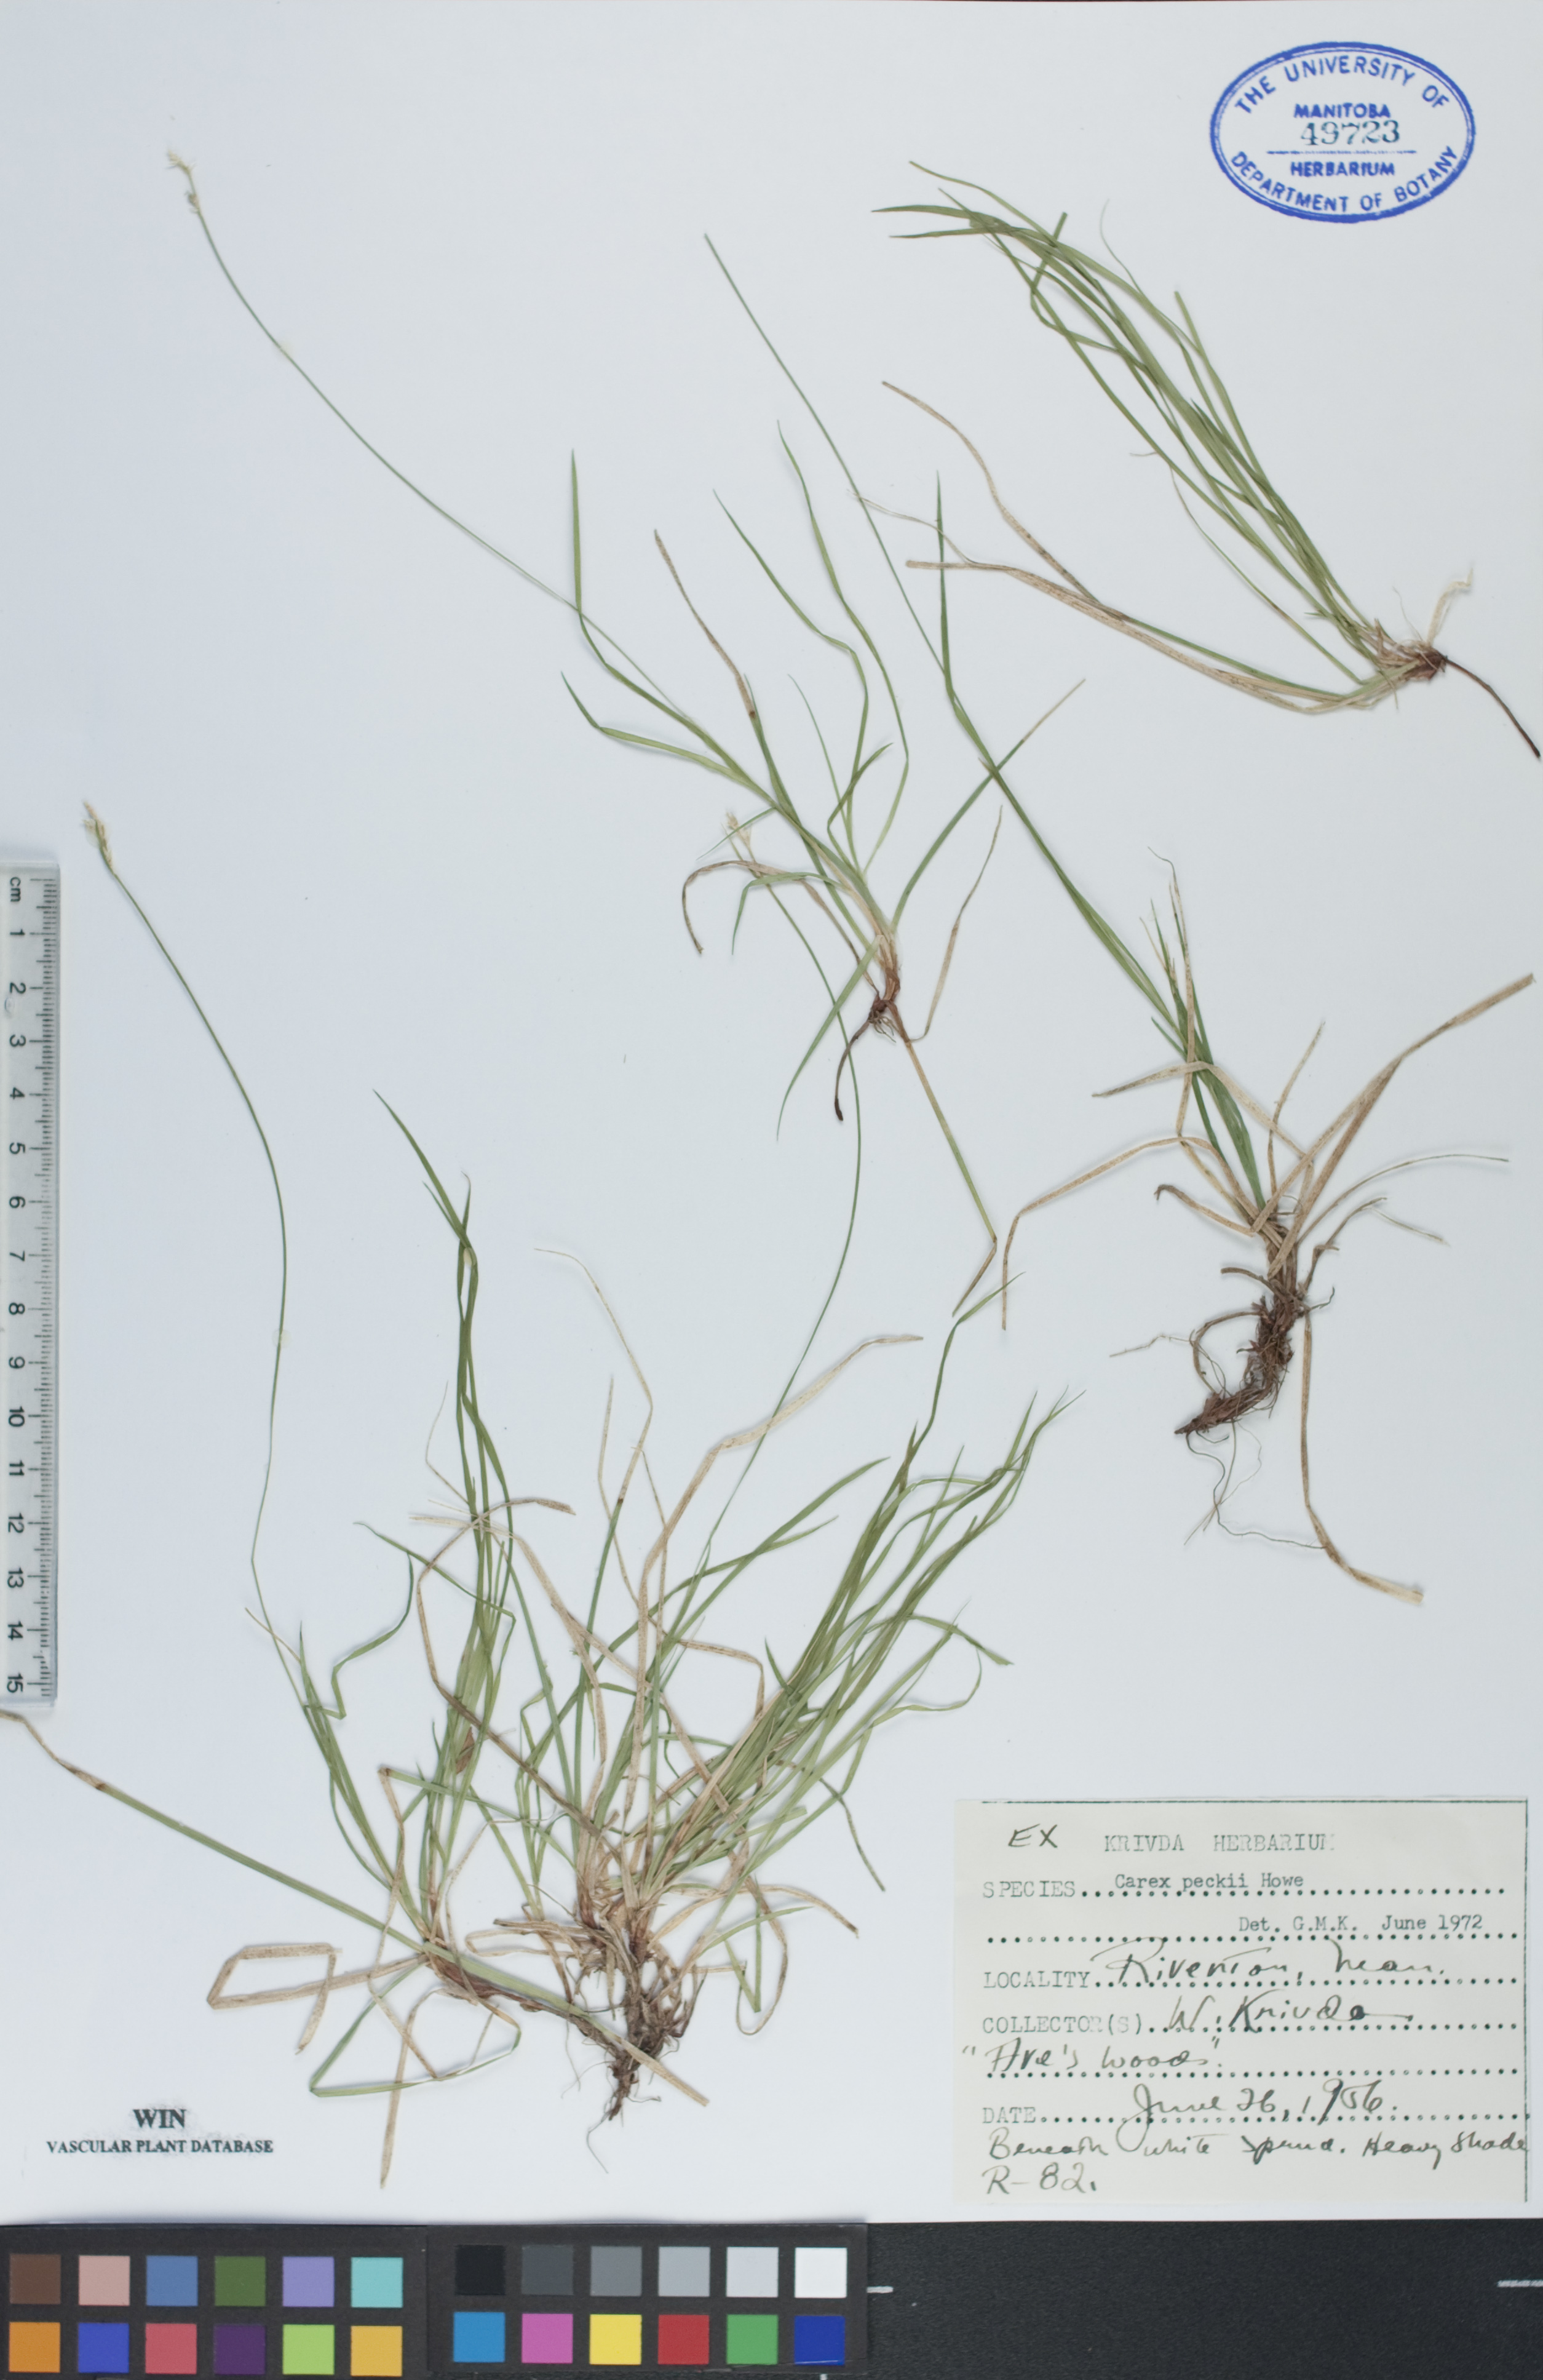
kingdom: Plantae
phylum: Tracheophyta
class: Liliopsida
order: Poales
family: Cyperaceae
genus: Carex
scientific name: Carex peckii
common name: Peck's oak sedge
